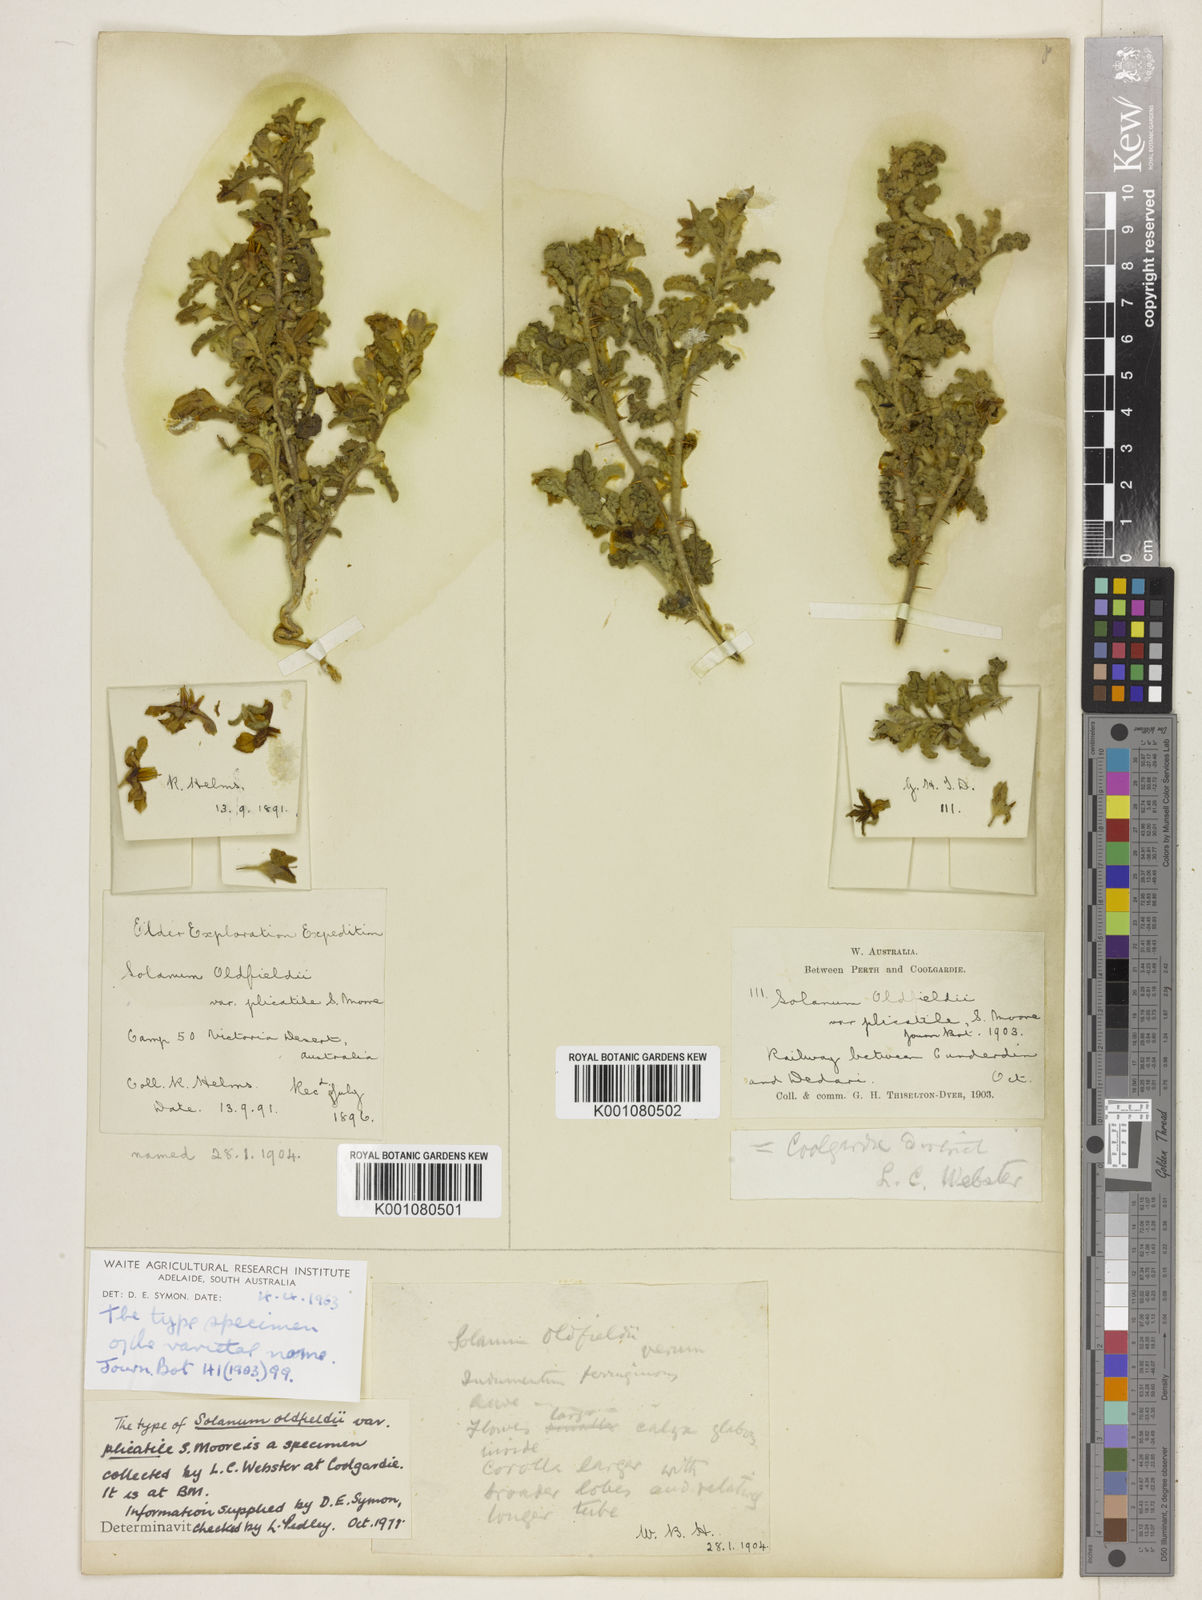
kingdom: Plantae
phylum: Tracheophyta
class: Magnoliopsida
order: Solanales
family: Solanaceae
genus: Solanum
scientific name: Solanum plicatile
